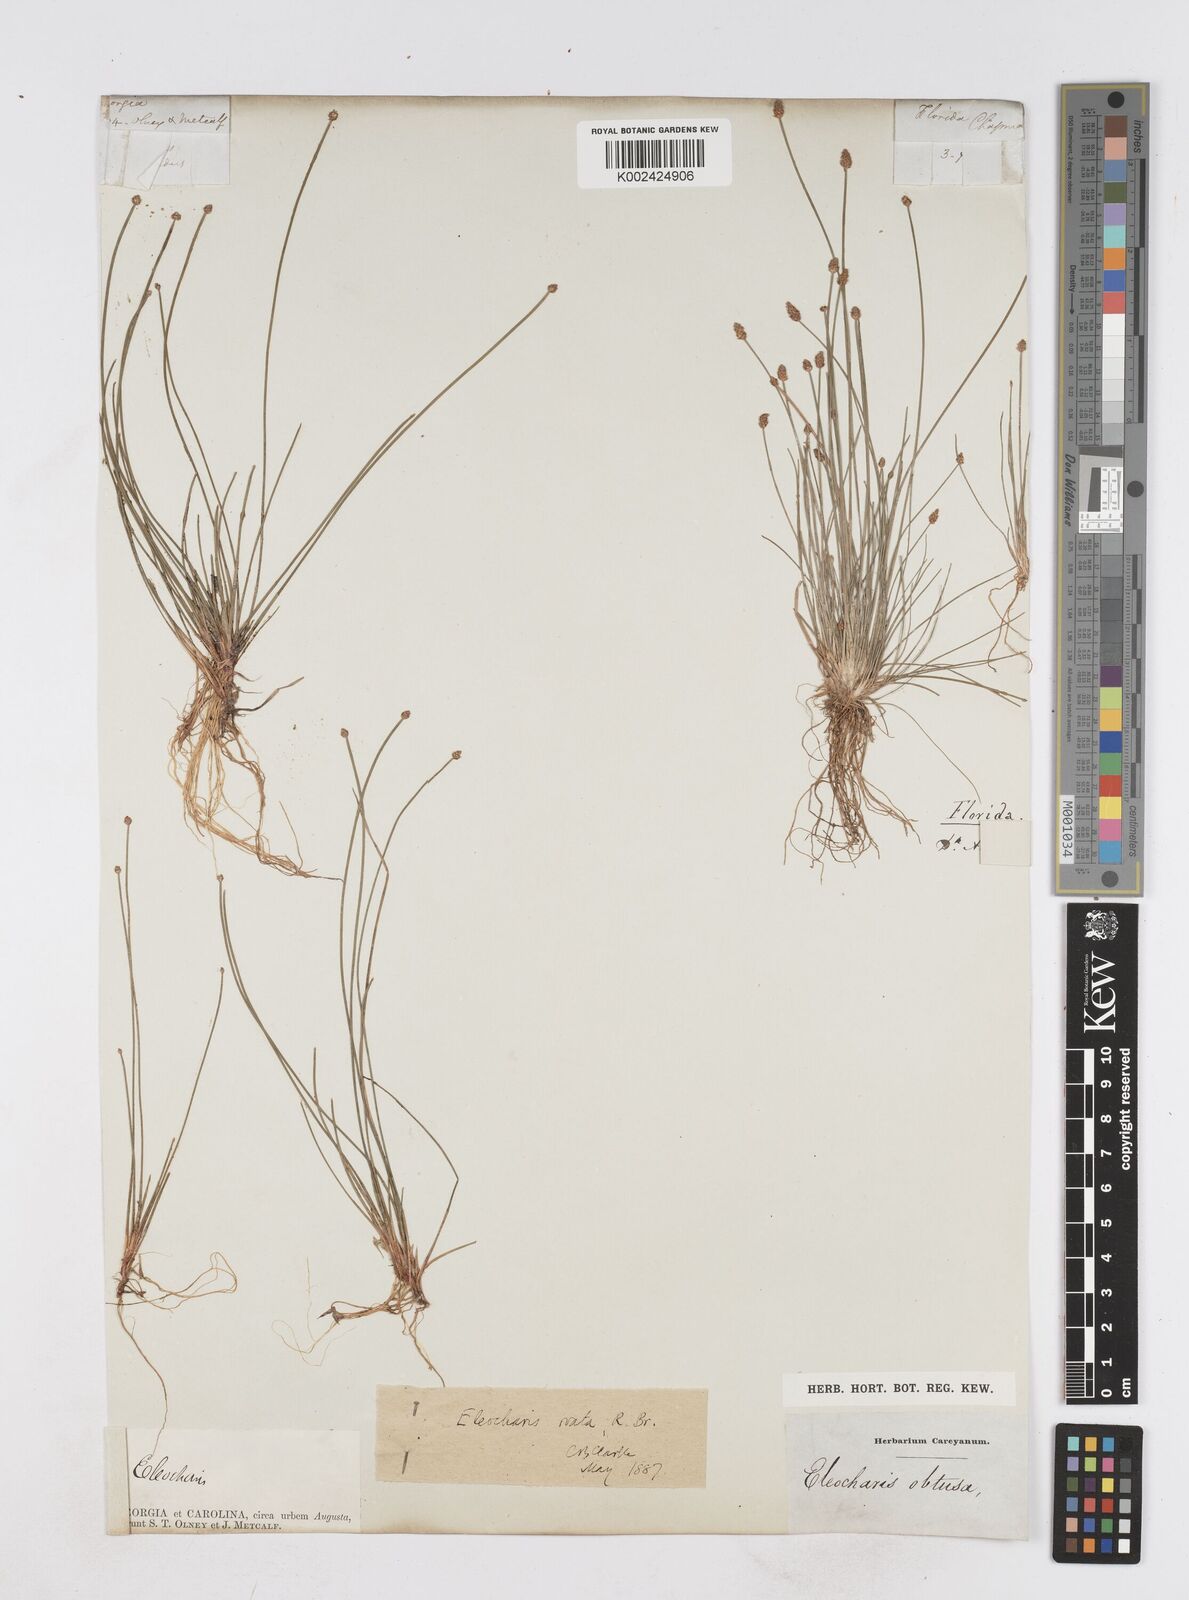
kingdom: Plantae
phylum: Tracheophyta
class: Liliopsida
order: Poales
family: Cyperaceae
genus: Eleocharis
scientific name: Eleocharis ovata
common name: Oval spike-rush
